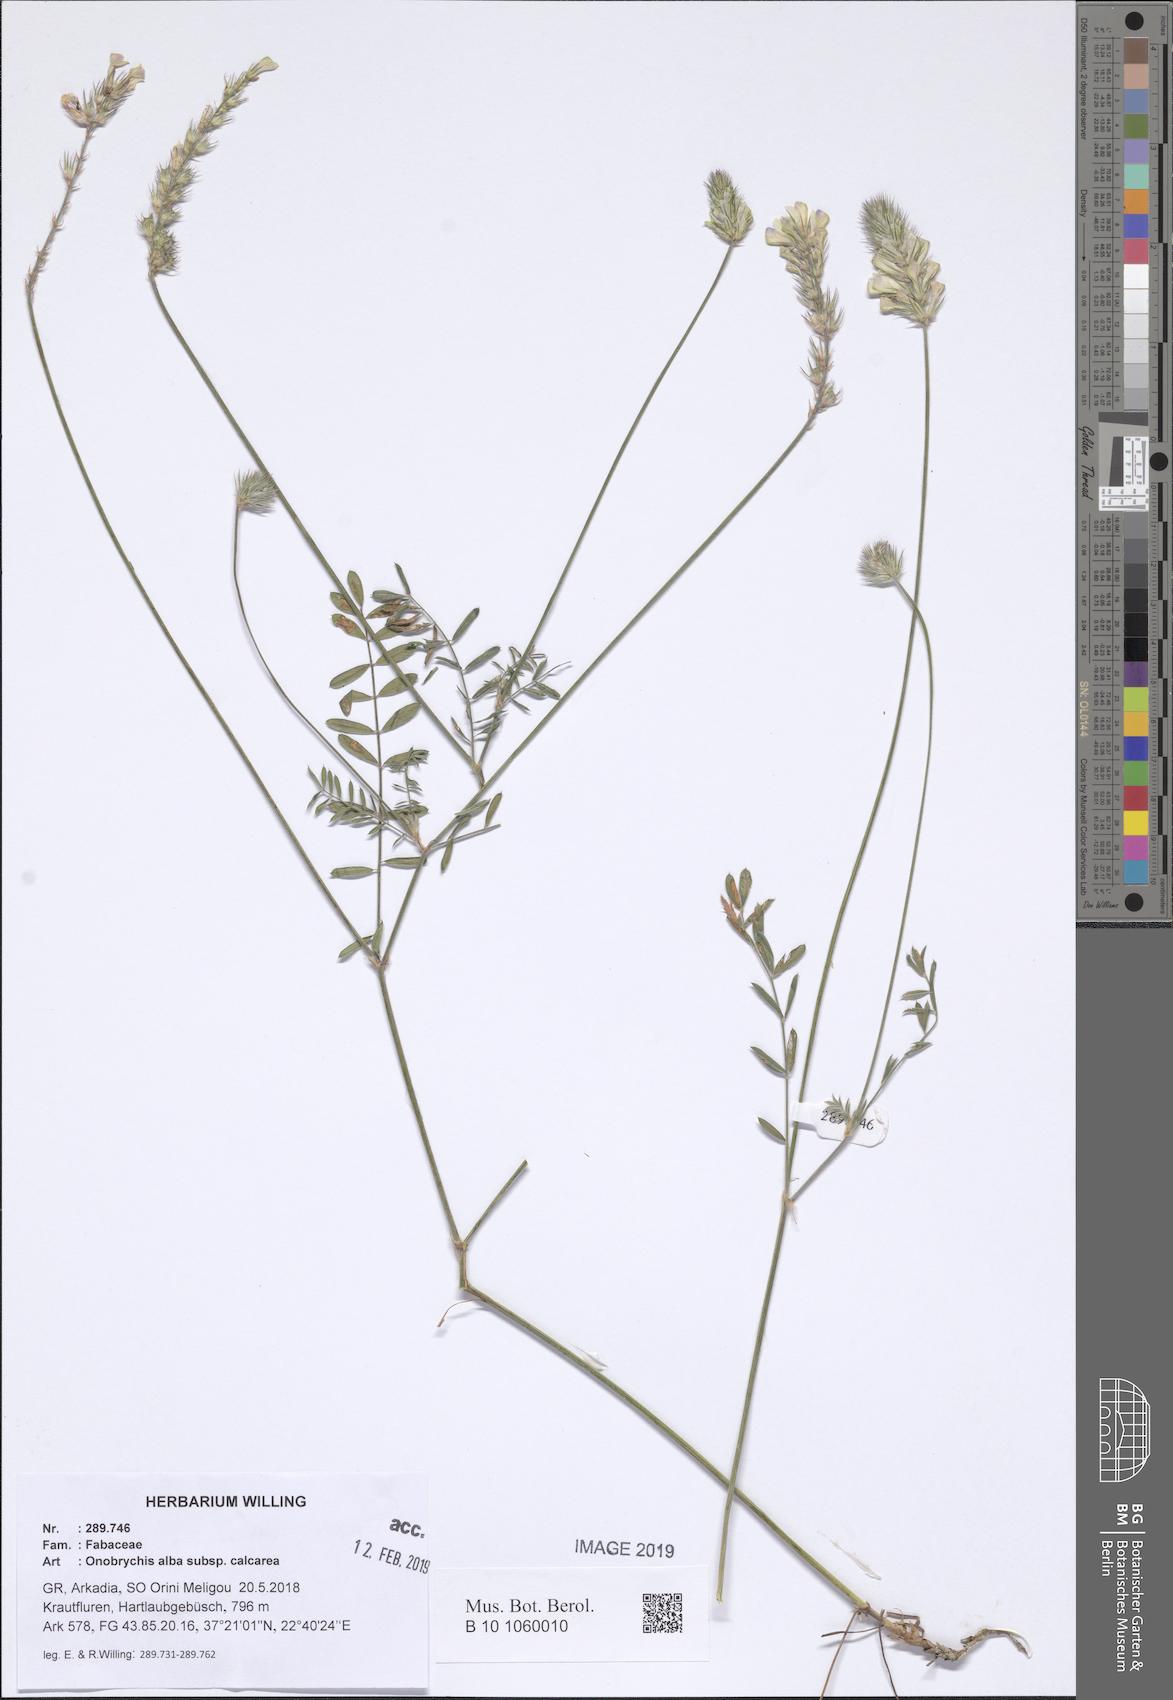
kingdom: Plantae
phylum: Tracheophyta
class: Magnoliopsida
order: Fabales
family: Fabaceae
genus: Onobrychis
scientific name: Onobrychis alba
